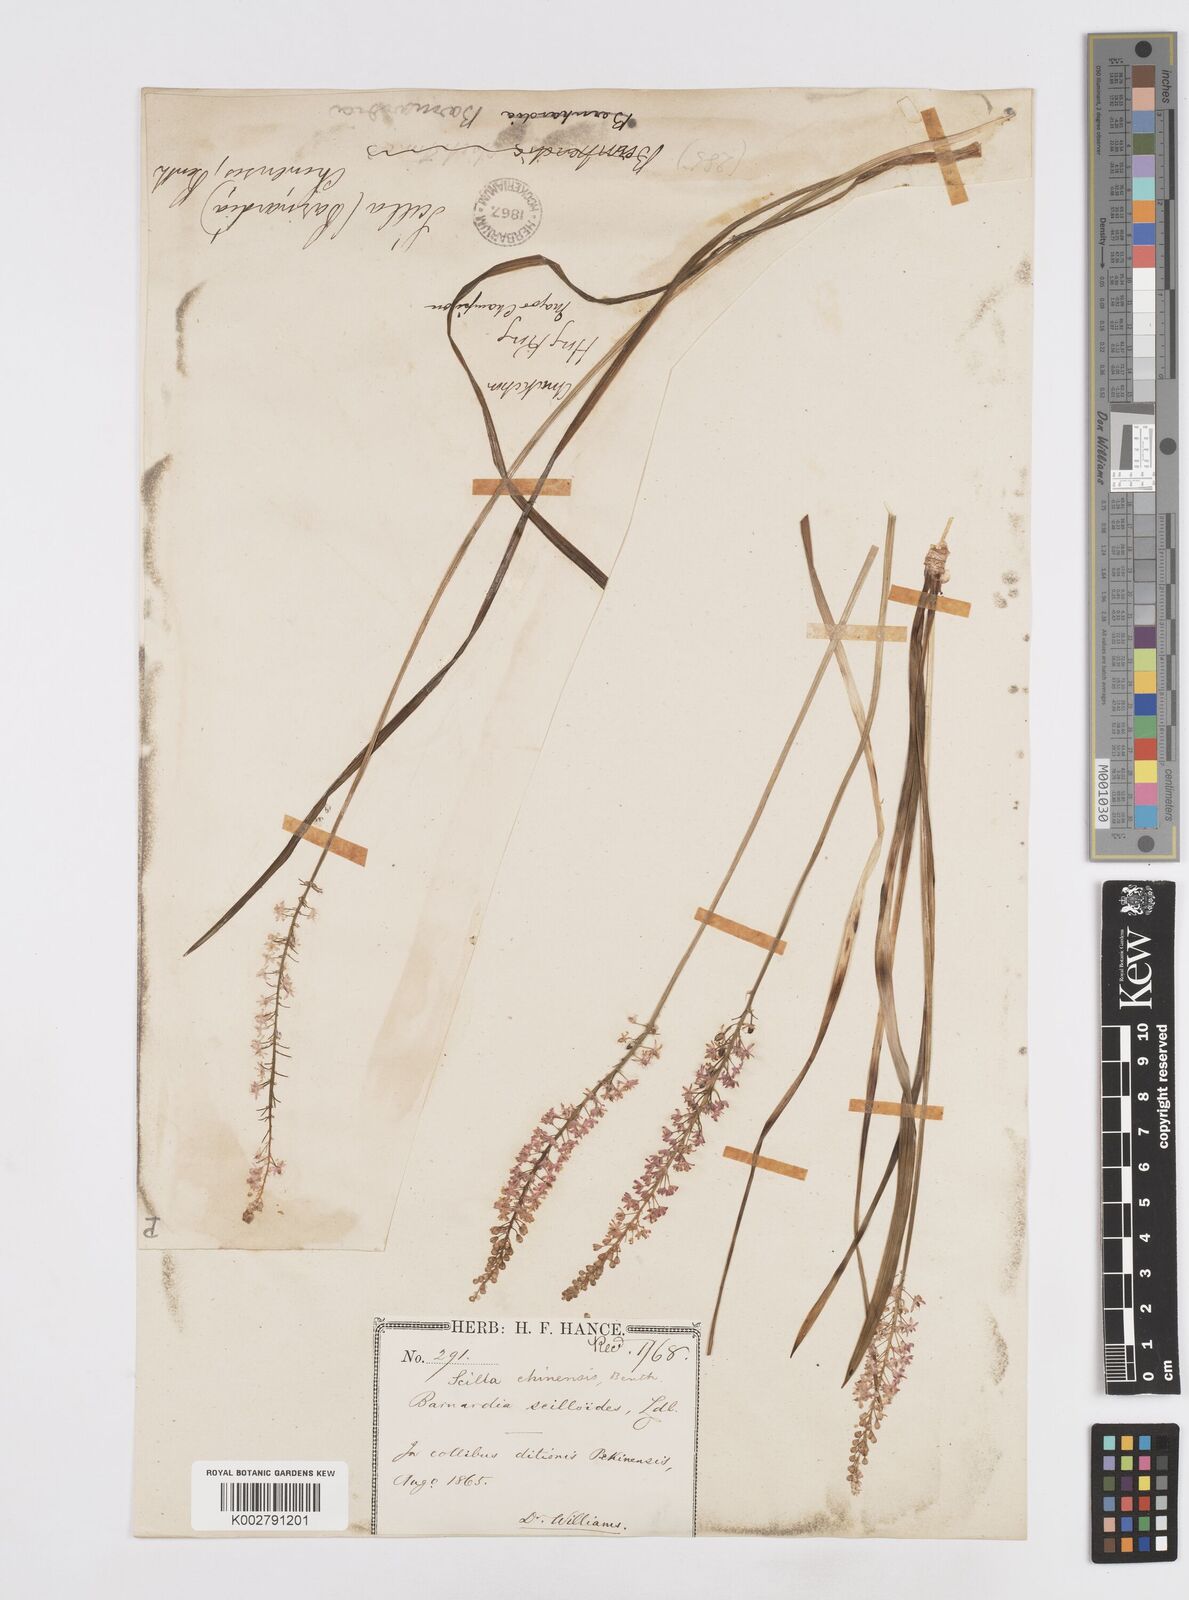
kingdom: Plantae
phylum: Tracheophyta
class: Liliopsida
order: Asparagales
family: Asparagaceae
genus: Barnardia
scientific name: Barnardia japonica
